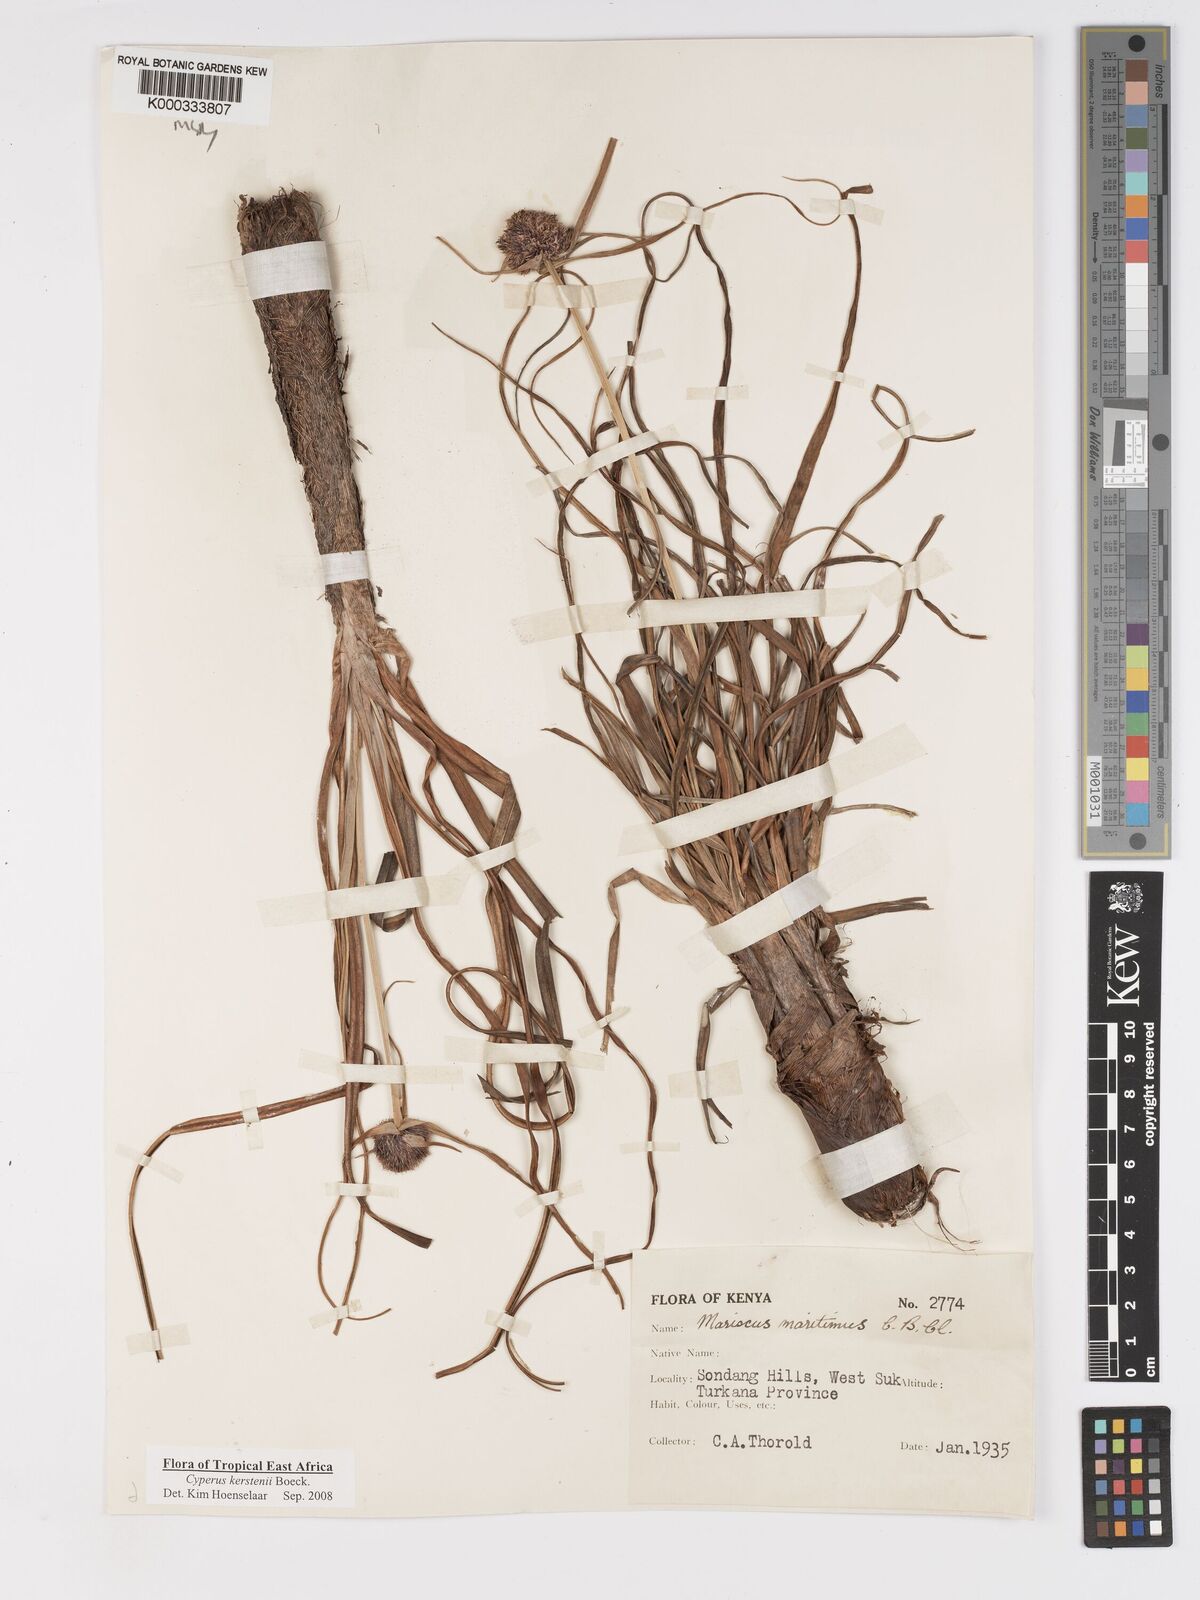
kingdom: Plantae
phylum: Tracheophyta
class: Liliopsida
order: Poales
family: Cyperaceae
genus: Cyperus
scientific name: Cyperus kerstenii
